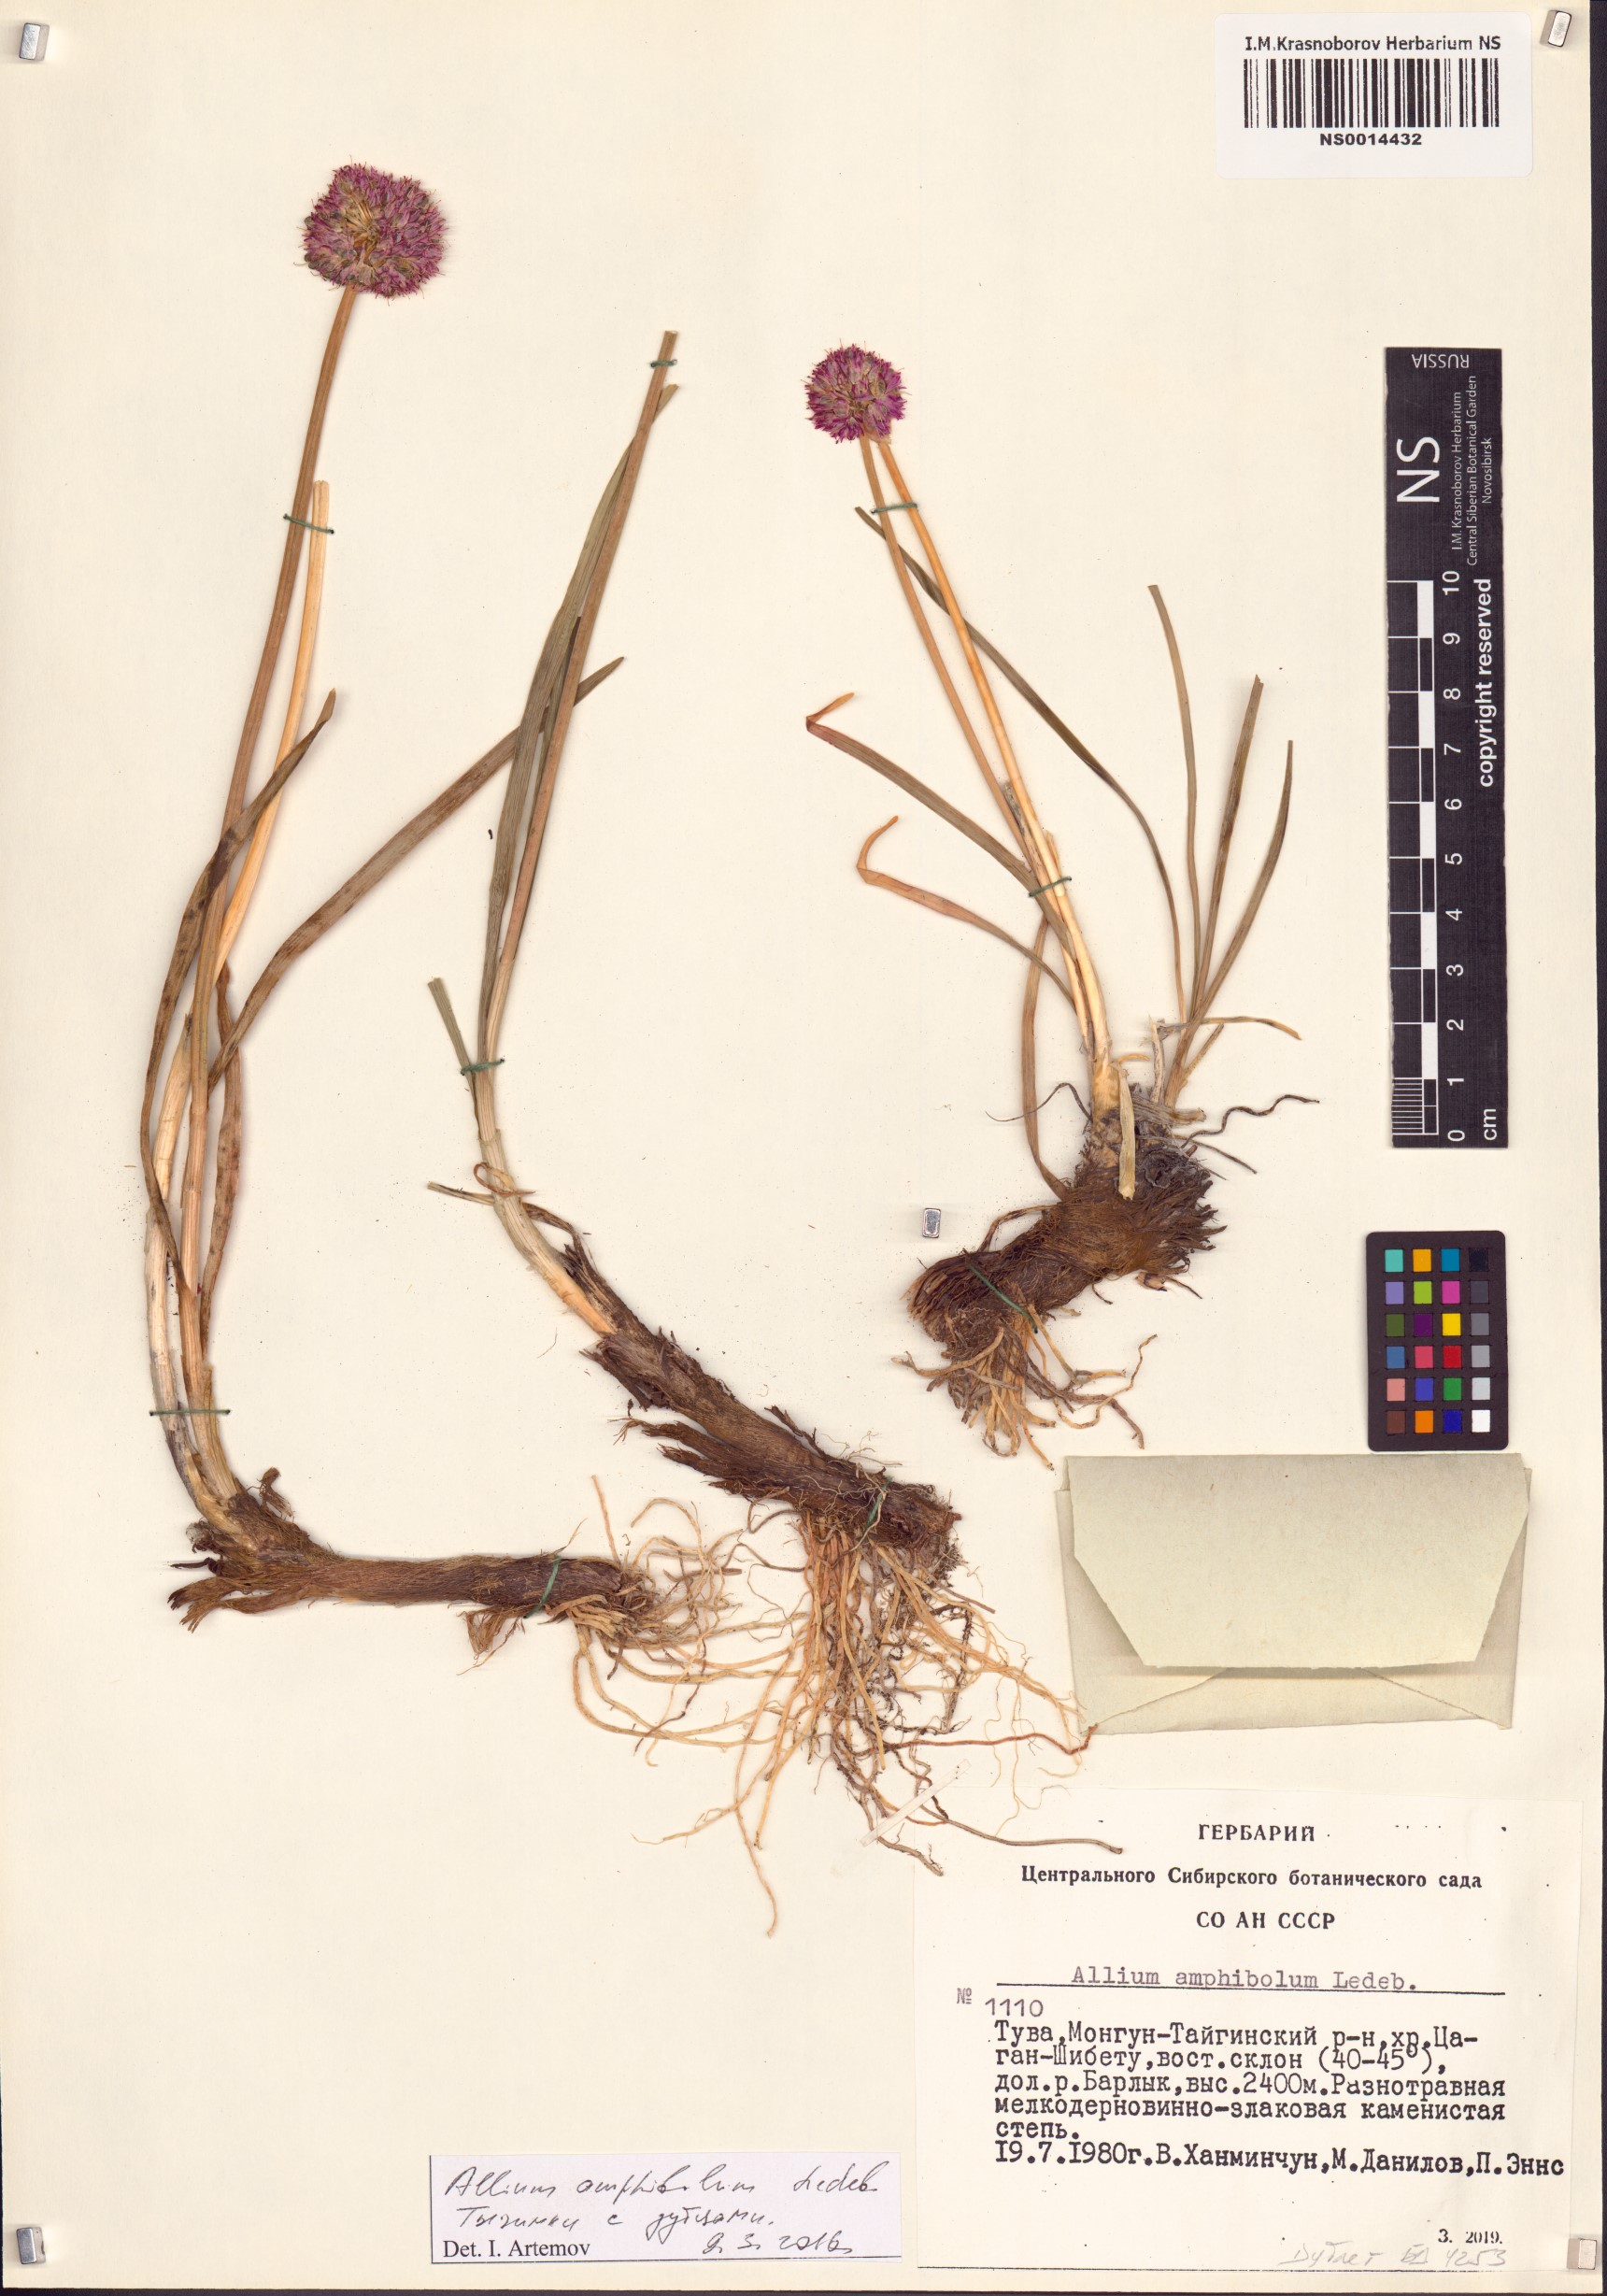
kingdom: Plantae
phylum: Tracheophyta
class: Liliopsida
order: Asparagales
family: Amaryllidaceae
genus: Allium
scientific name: Allium amphibolum
